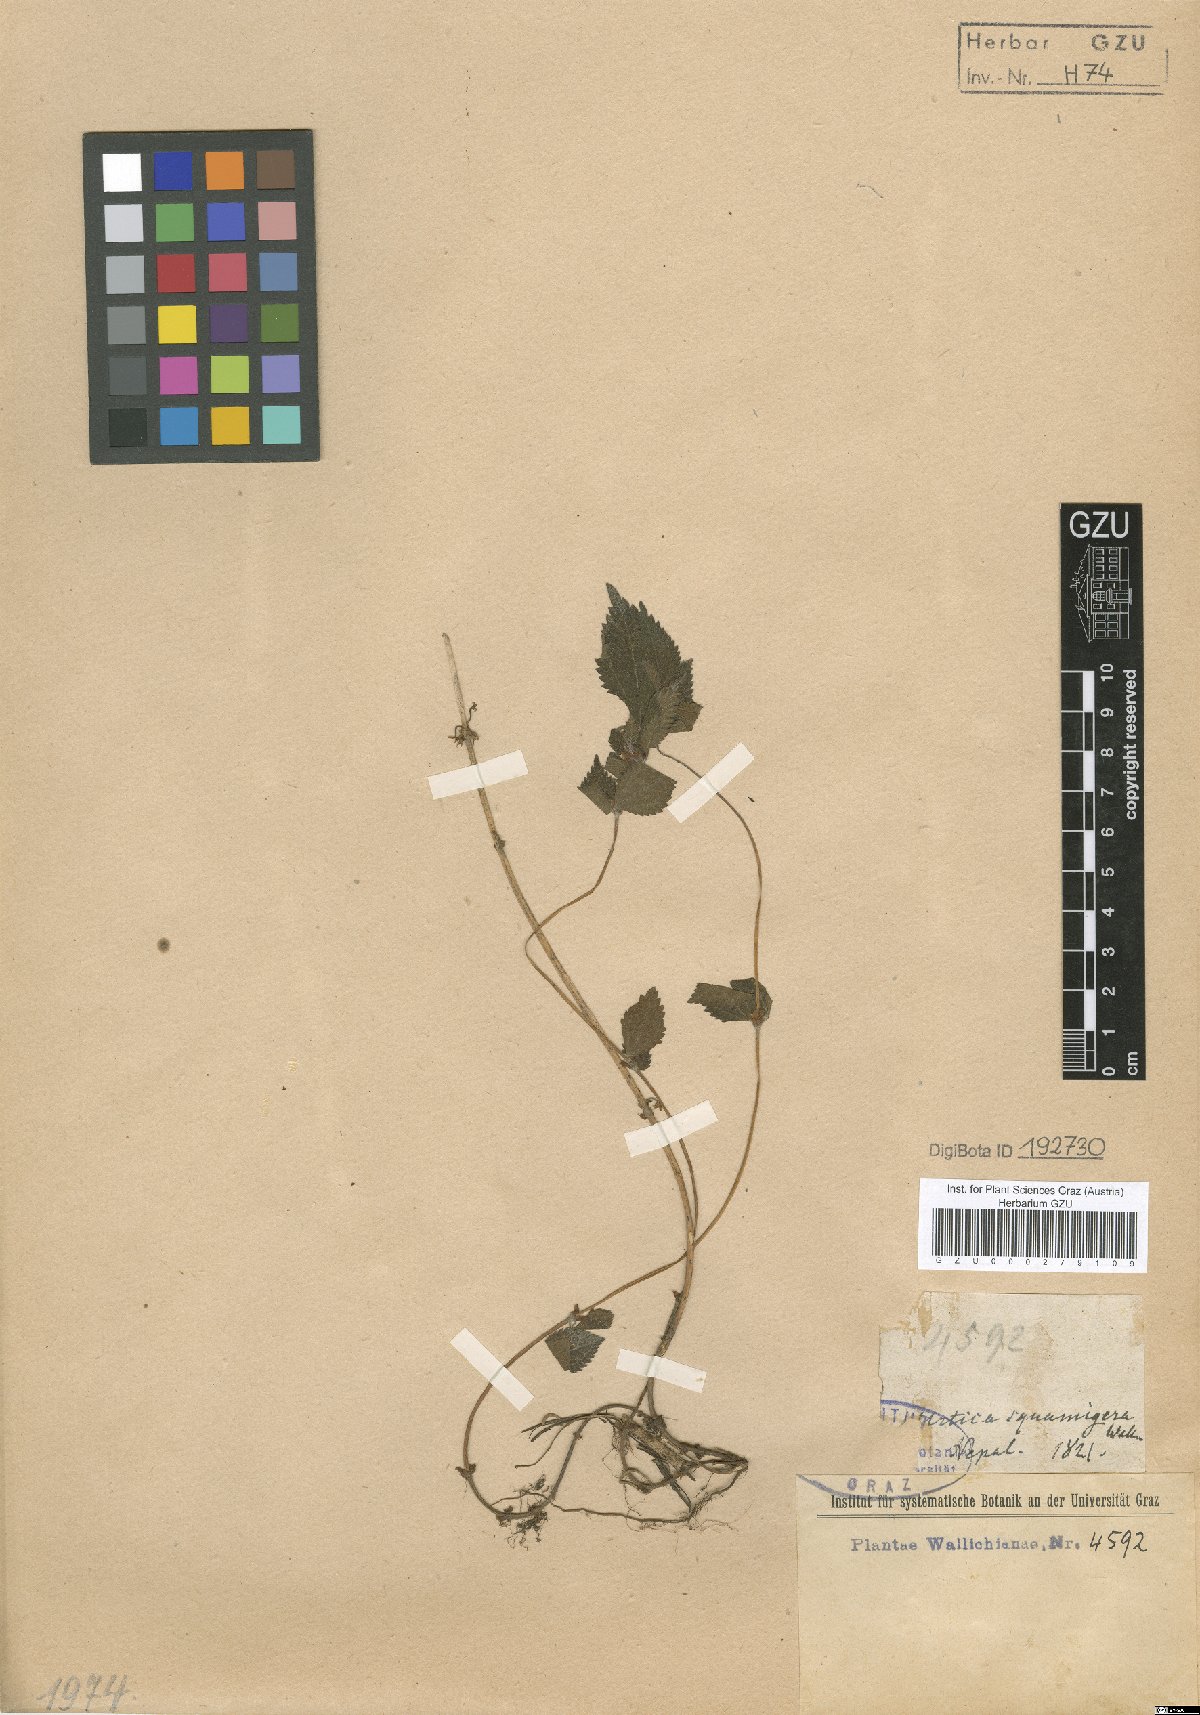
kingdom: Plantae
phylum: Tracheophyta
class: Magnoliopsida
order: Rosales
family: Urticaceae
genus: Chamabainia
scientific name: Chamabainia cuspidata
